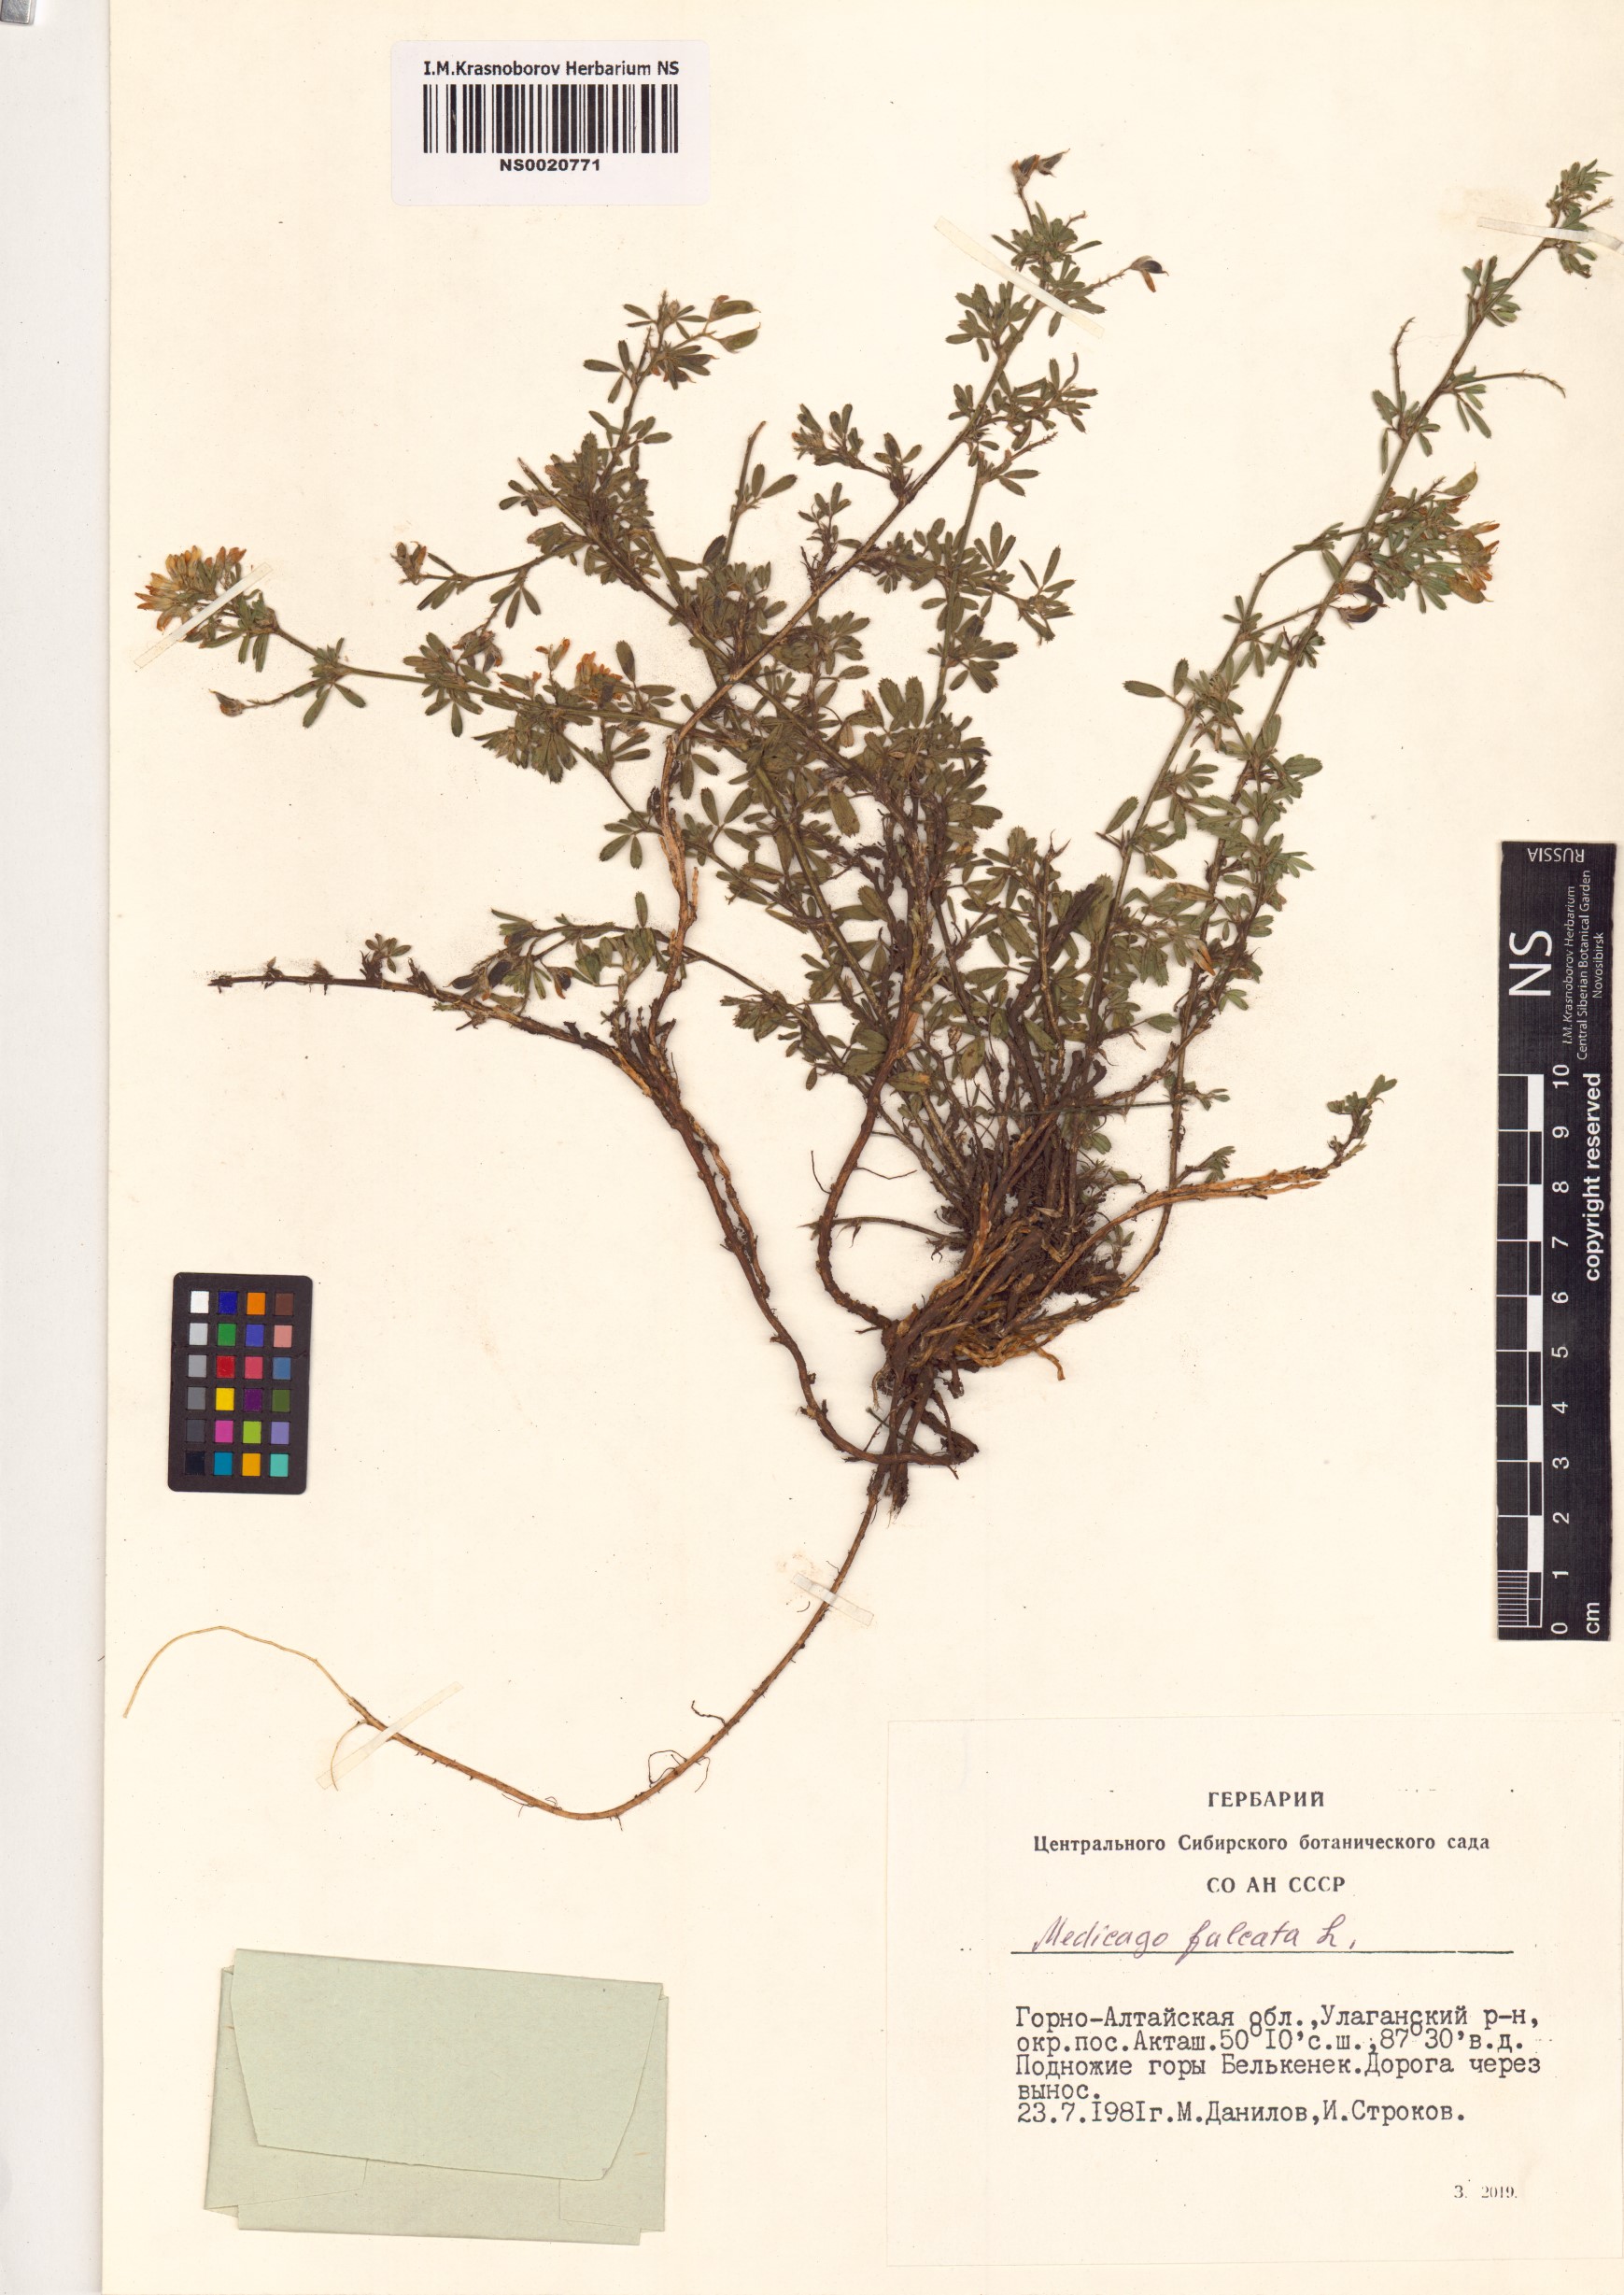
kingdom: Plantae
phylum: Tracheophyta
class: Magnoliopsida
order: Fabales
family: Fabaceae
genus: Medicago
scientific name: Medicago falcata
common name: Sickle medick
